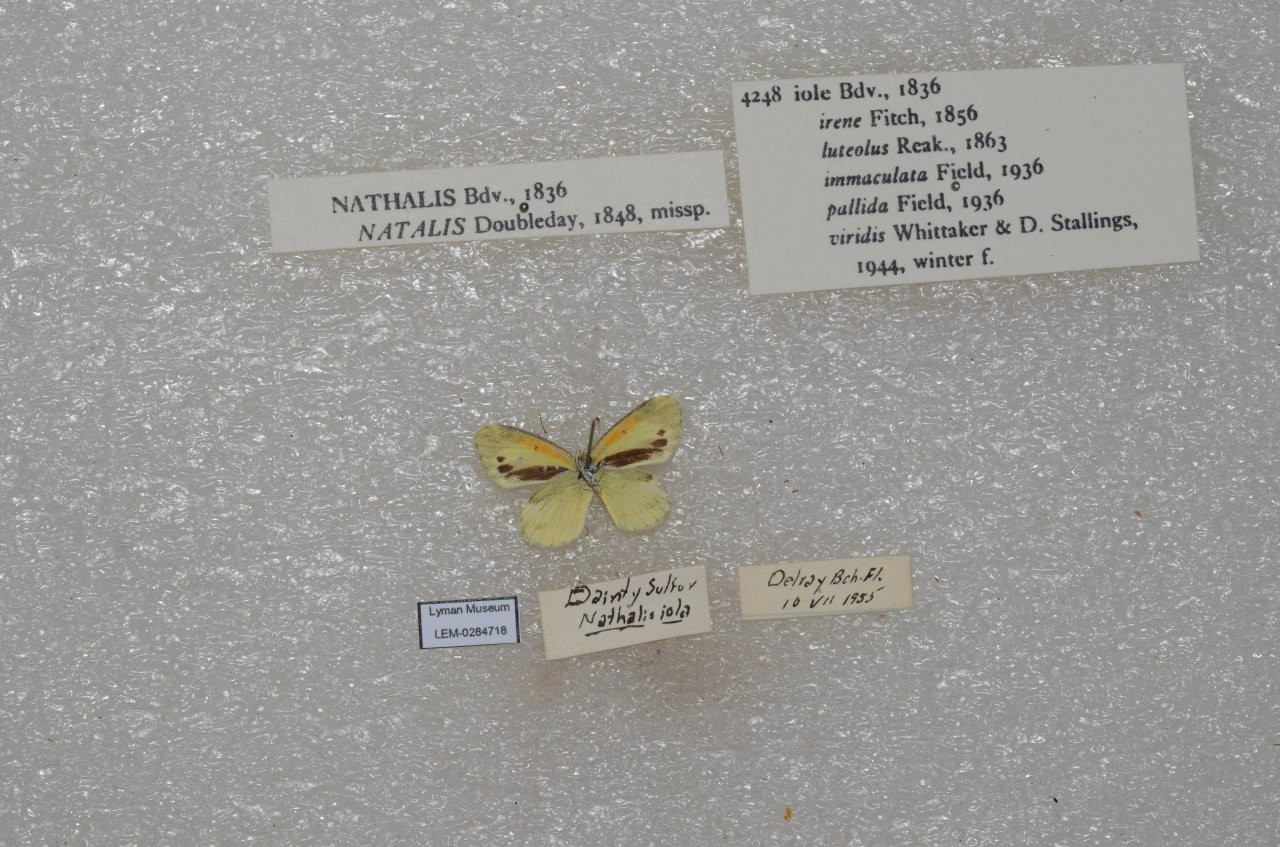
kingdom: Animalia
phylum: Arthropoda
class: Insecta
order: Lepidoptera
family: Pieridae
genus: Nathalis
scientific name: Nathalis iole
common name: Dainty Sulphur
